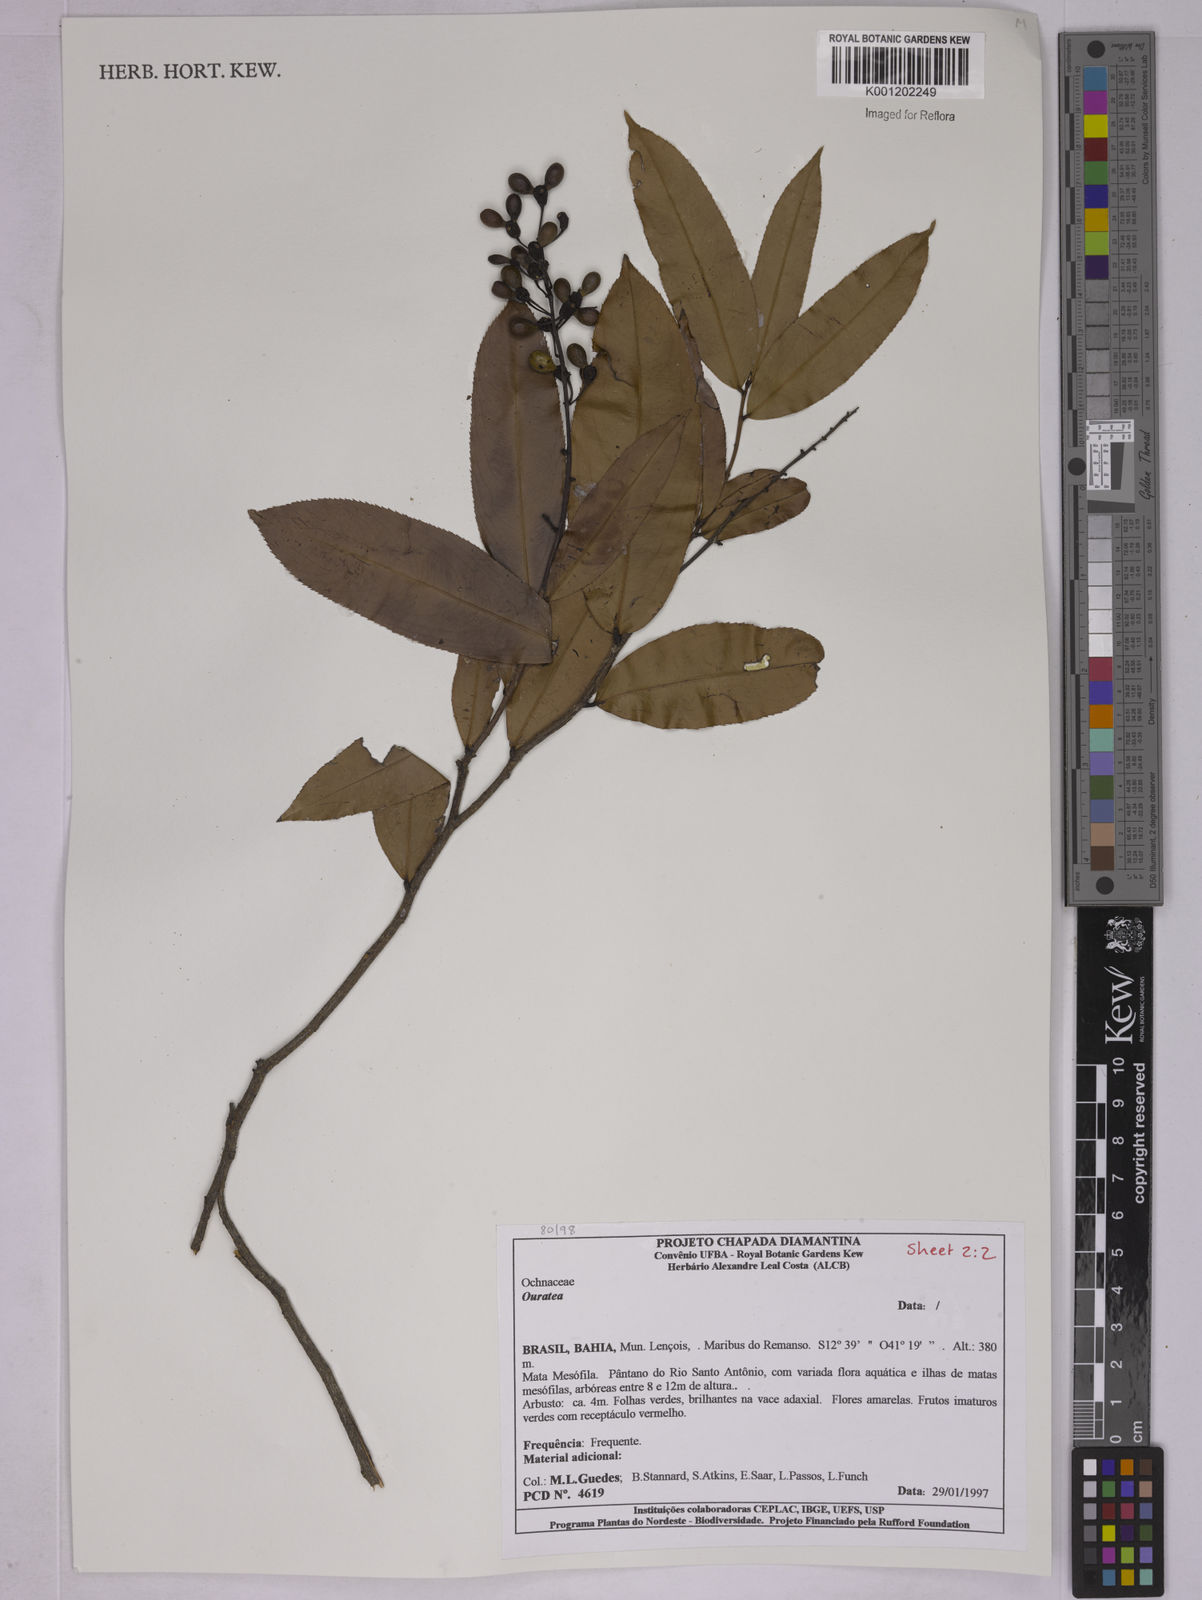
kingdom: Plantae
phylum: Tracheophyta
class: Magnoliopsida
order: Malpighiales
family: Ochnaceae
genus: Ouratea
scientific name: Ouratea
